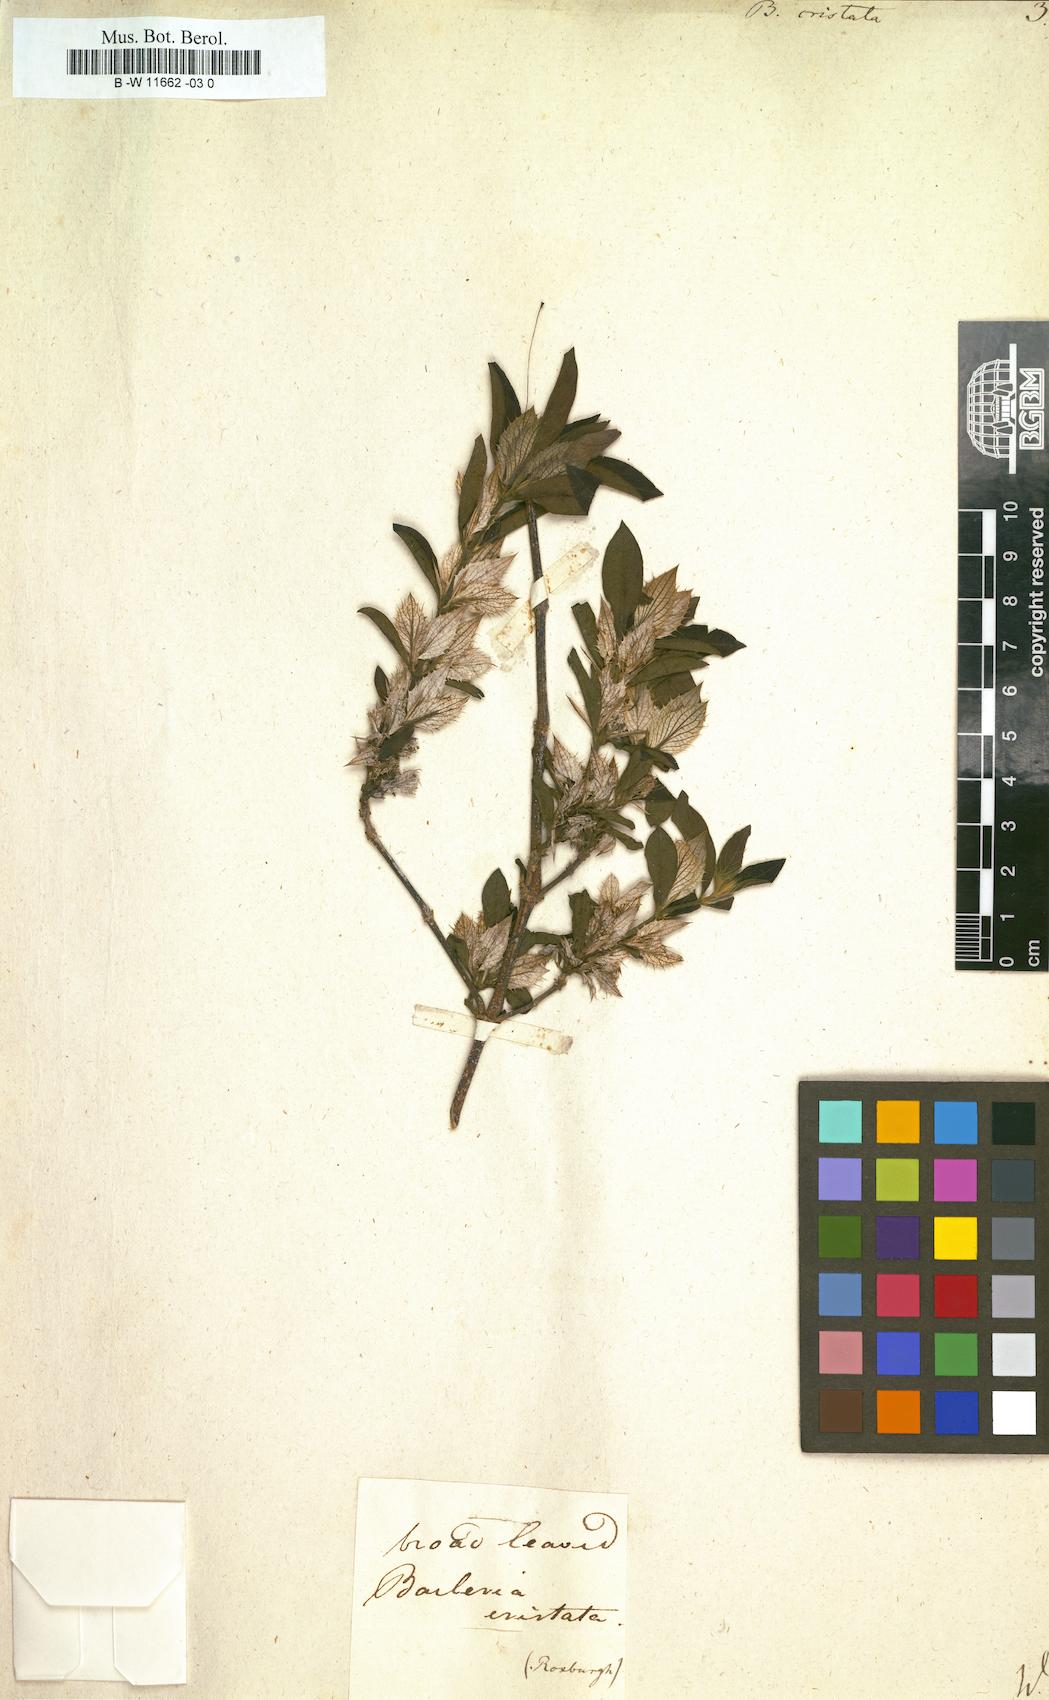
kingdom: Plantae
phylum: Tracheophyta
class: Magnoliopsida
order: Lamiales
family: Acanthaceae
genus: Barleria
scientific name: Barleria cristata
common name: Crested philippine violet
